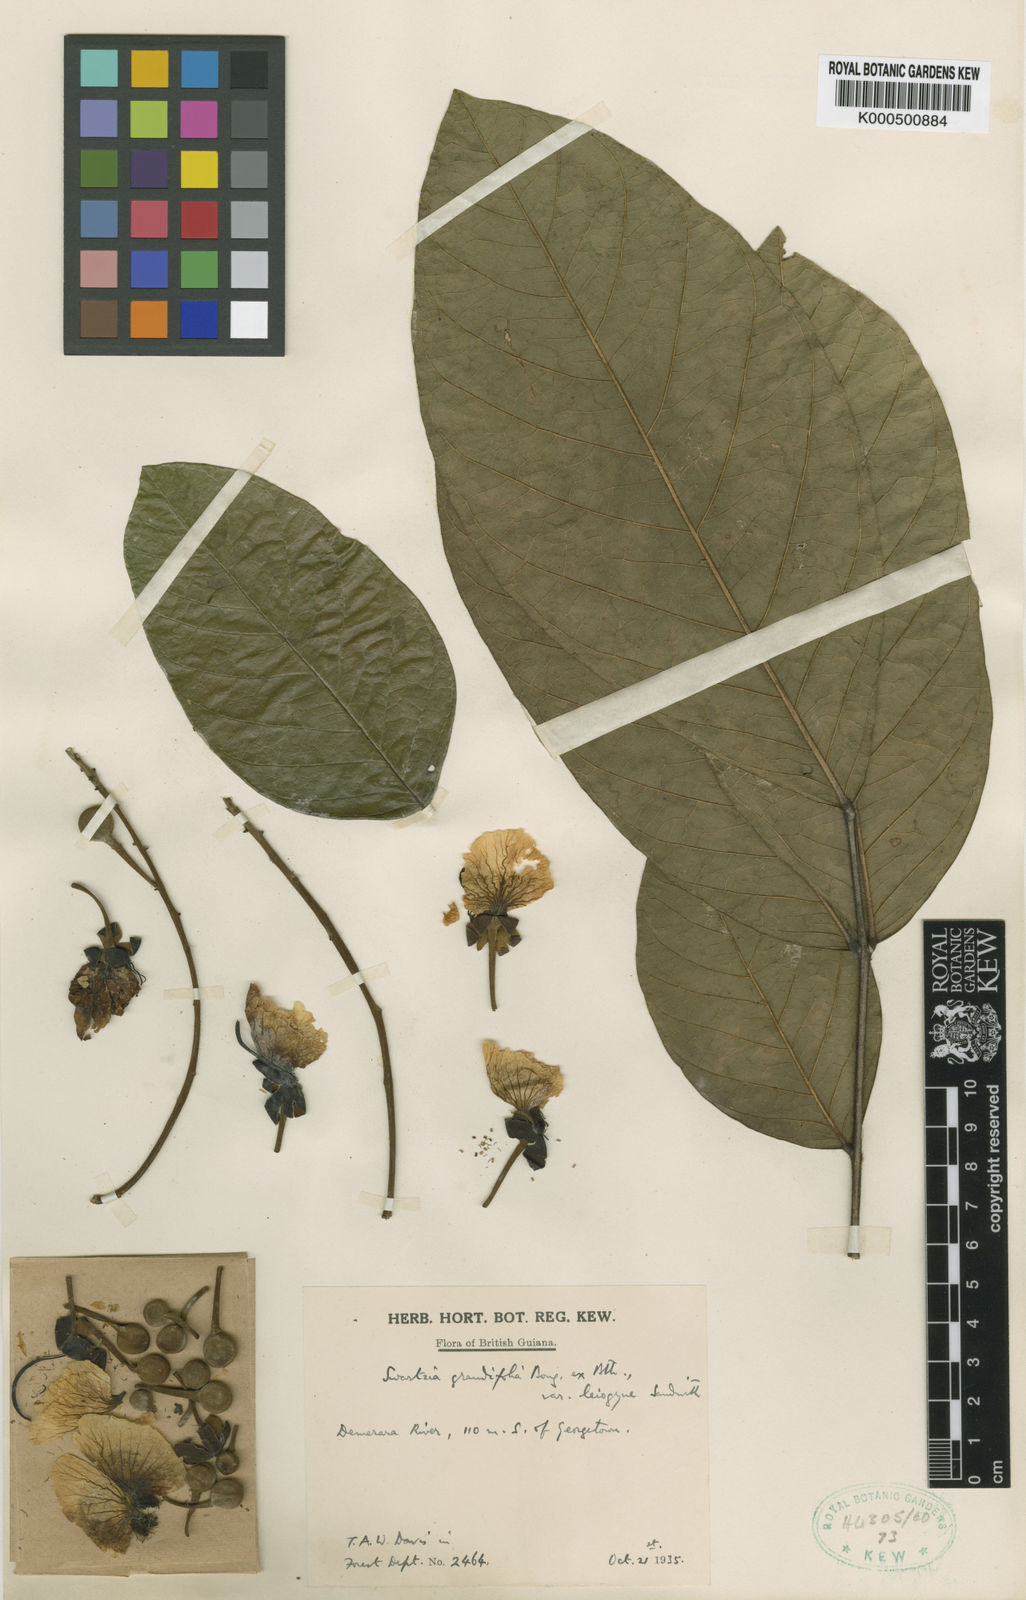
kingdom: Plantae
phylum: Tracheophyta
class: Magnoliopsida
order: Fabales
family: Fabaceae
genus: Swartzia
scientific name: Swartzia xanthopetala
